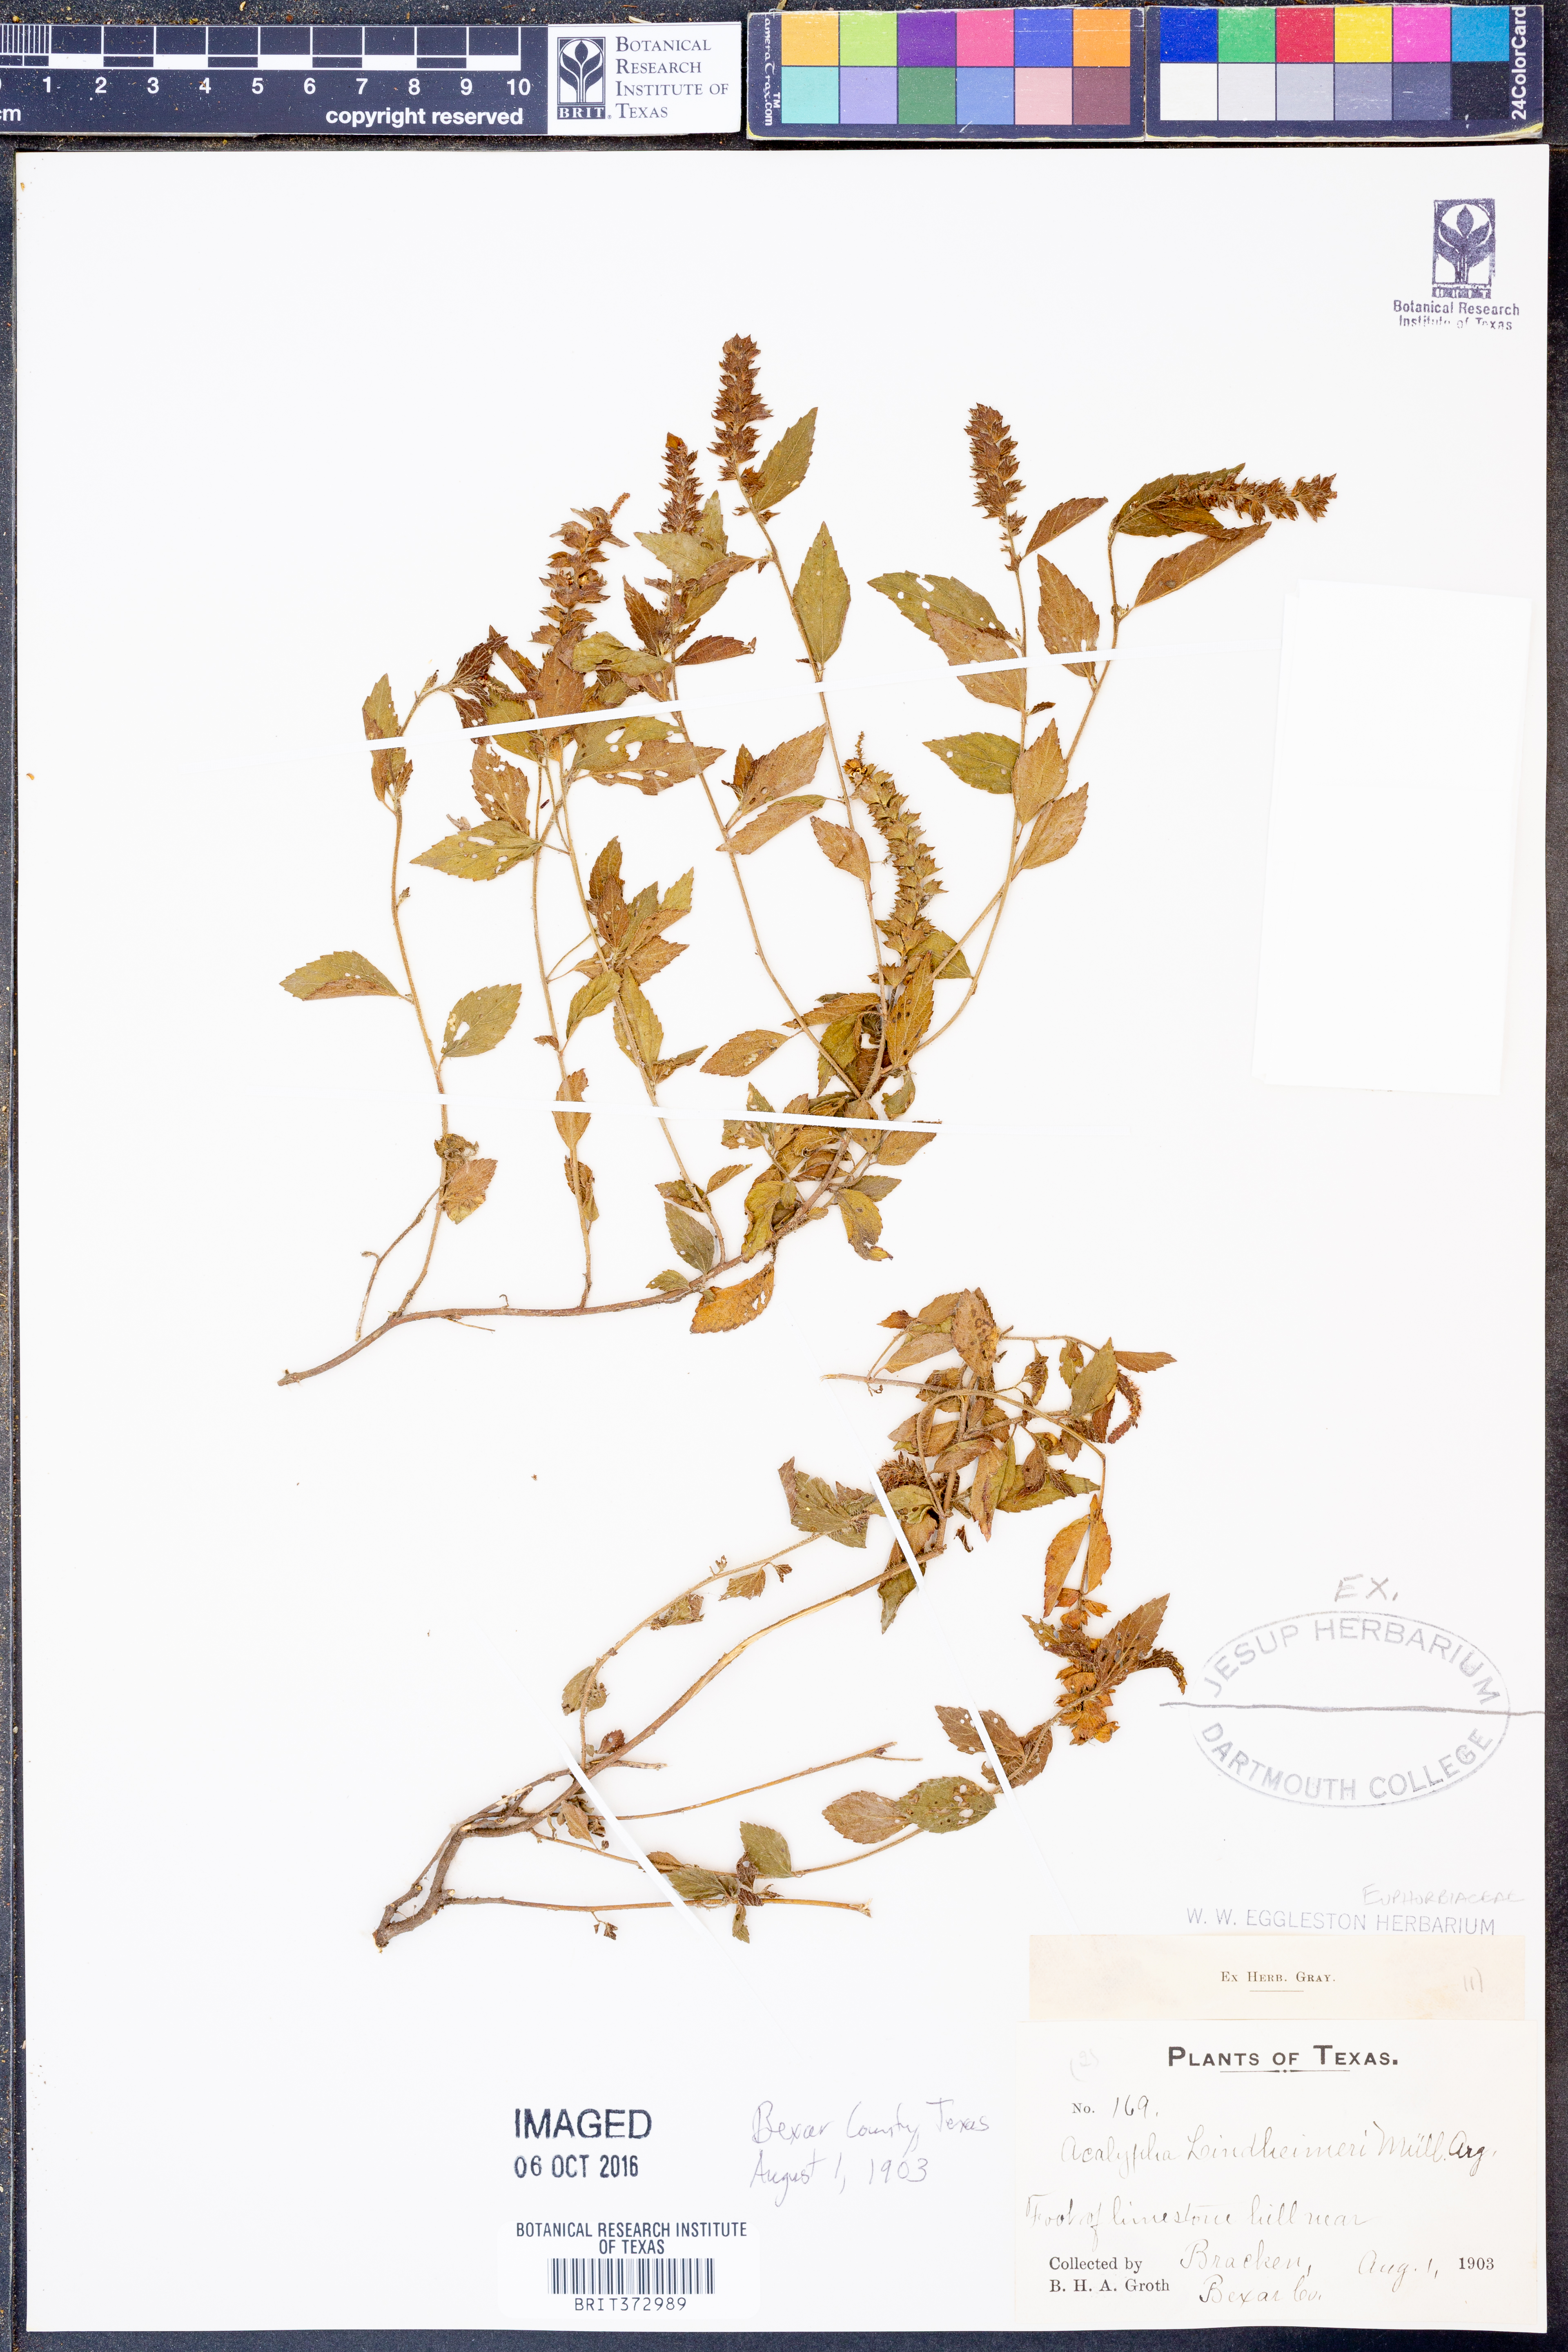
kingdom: Plantae
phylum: Tracheophyta
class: Magnoliopsida
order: Malpighiales
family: Euphorbiaceae
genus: Acalypha
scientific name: Acalypha phleoides
